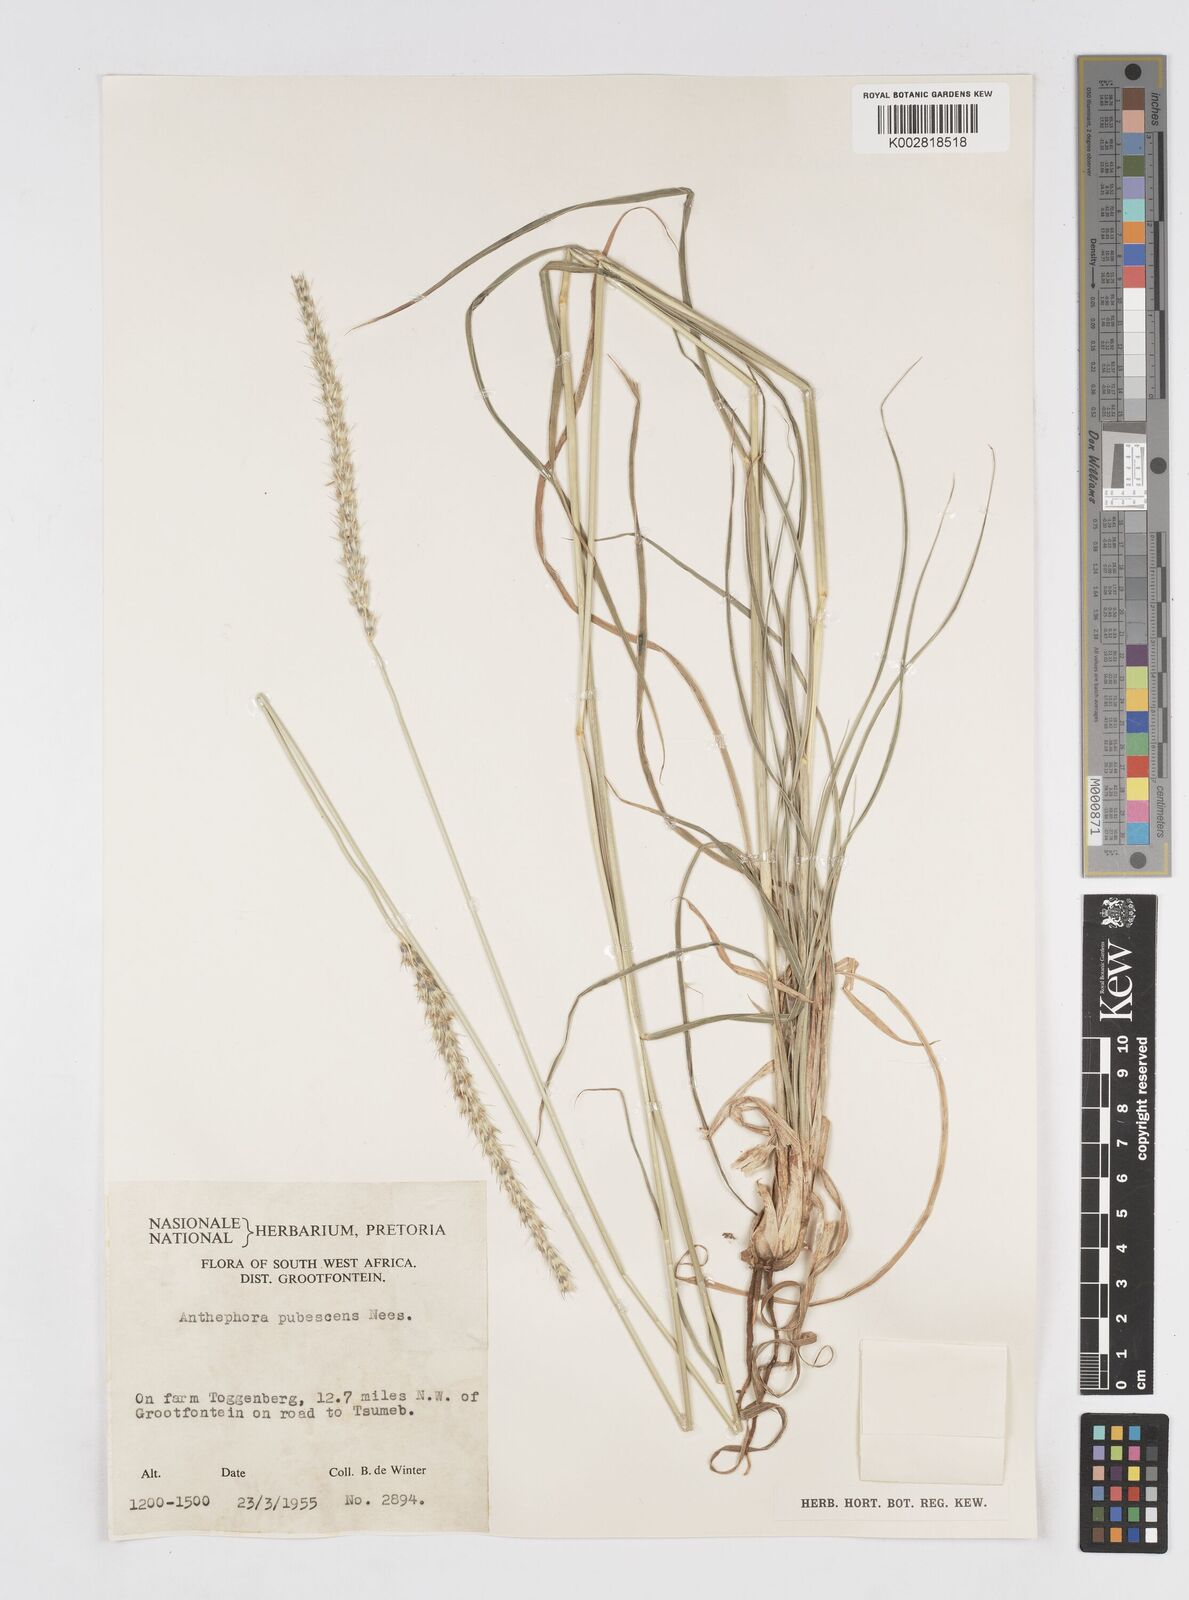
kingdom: Plantae
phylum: Tracheophyta
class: Liliopsida
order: Poales
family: Poaceae
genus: Anthephora
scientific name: Anthephora pubescens
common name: Wool grass
